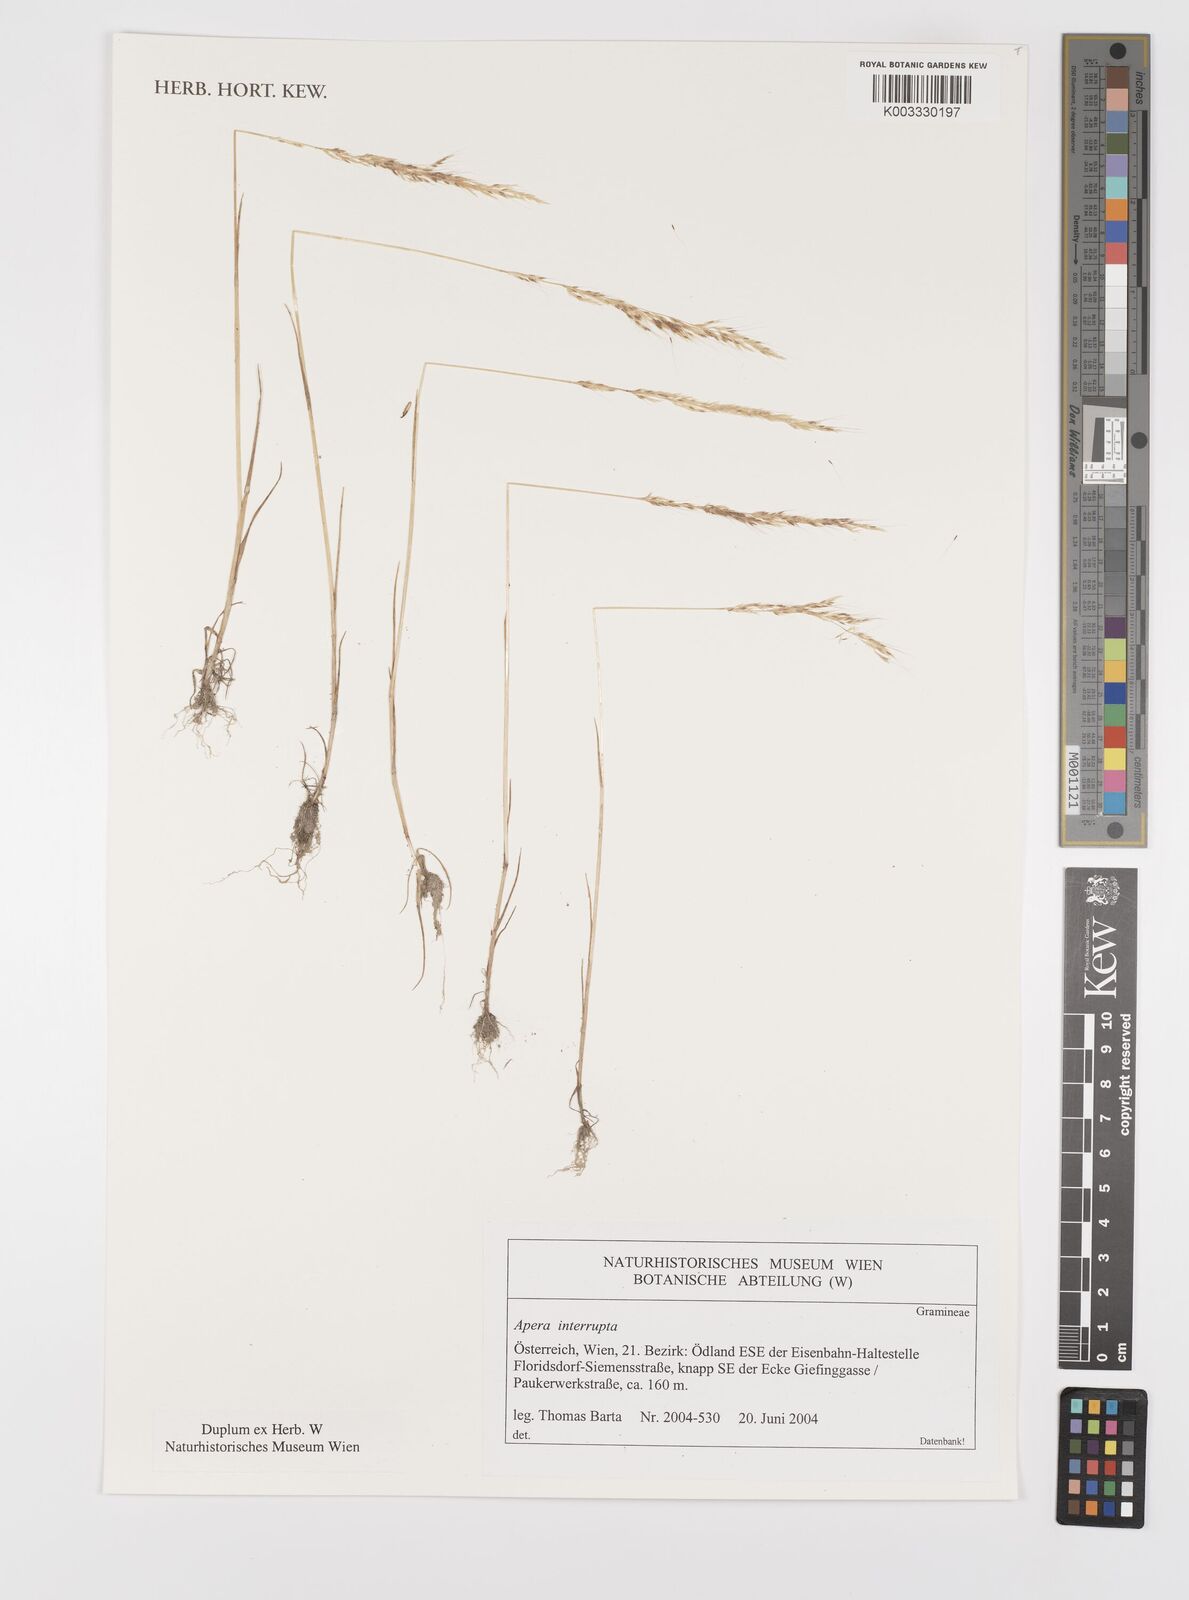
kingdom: Plantae
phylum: Tracheophyta
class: Liliopsida
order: Poales
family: Poaceae
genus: Apera
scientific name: Apera interrupta
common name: Dense silky-bent
